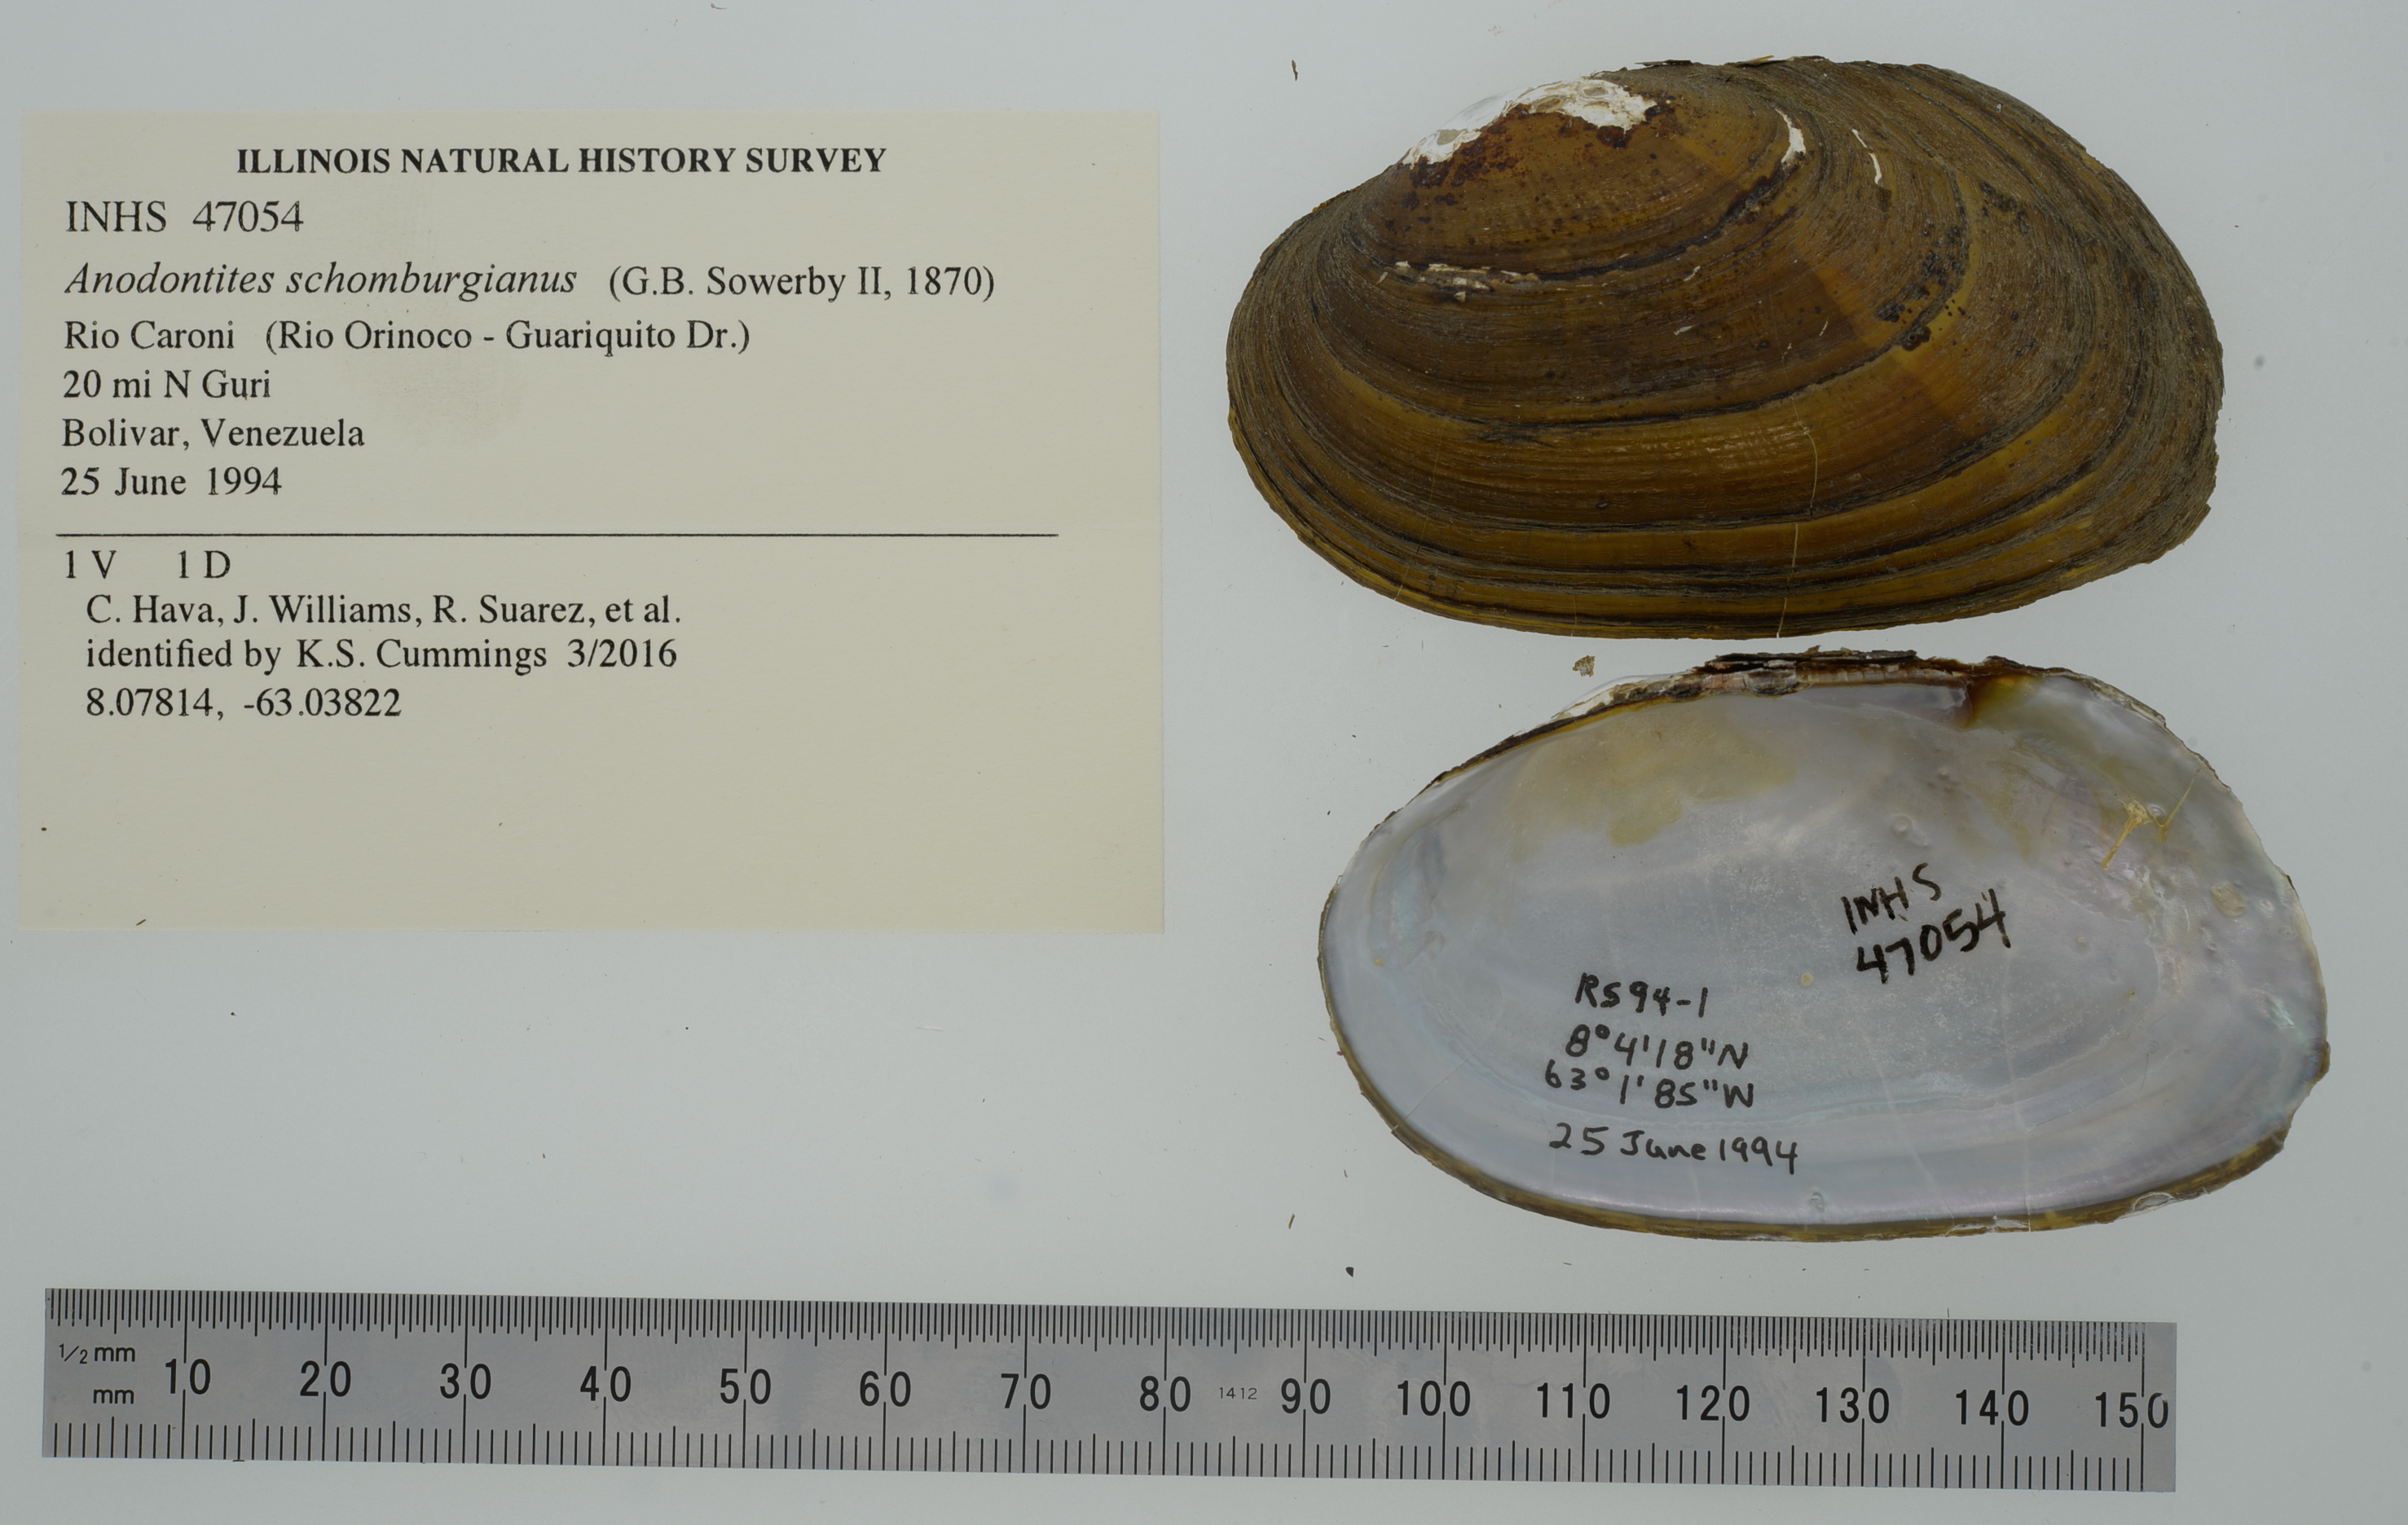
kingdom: Animalia
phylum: Mollusca
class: Bivalvia
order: Unionida
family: Mycetopodidae
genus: Anodontites
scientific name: Anodontites schomburgiana
